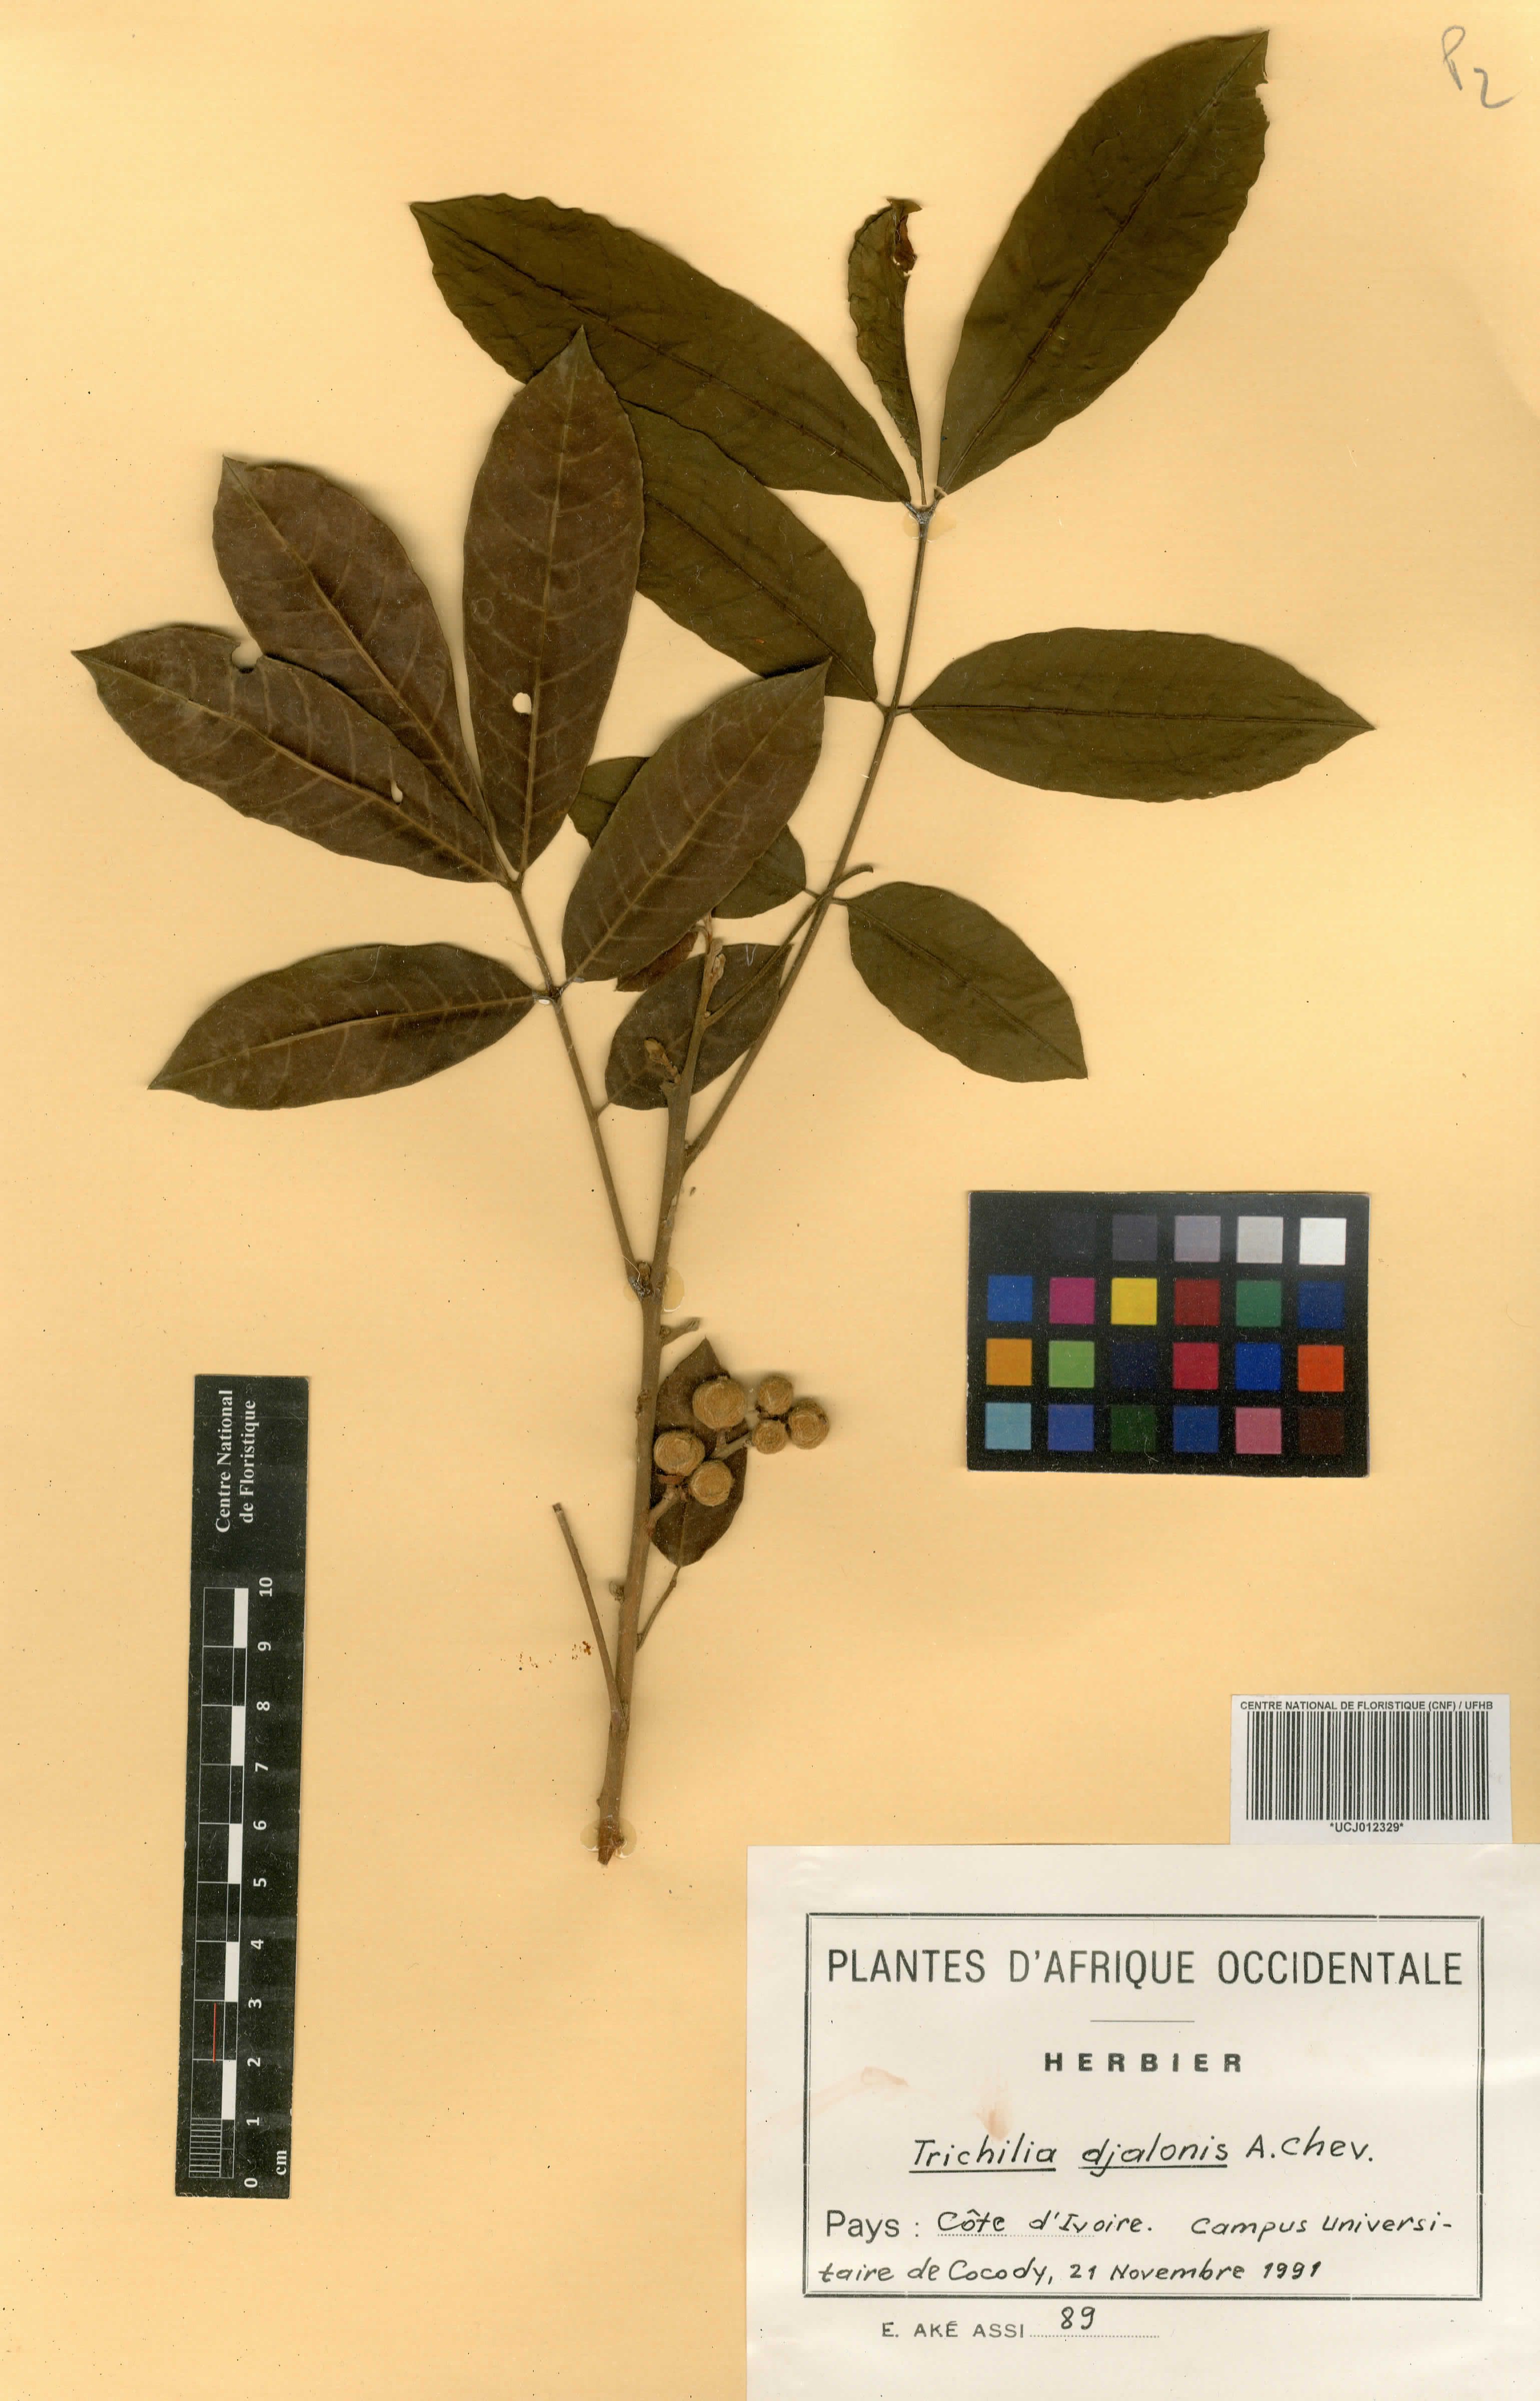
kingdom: Plantae
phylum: Tracheophyta
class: Magnoliopsida
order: Sapindales
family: Meliaceae
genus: Trichilia
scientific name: Trichilia dregeana
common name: Christmas-bells
